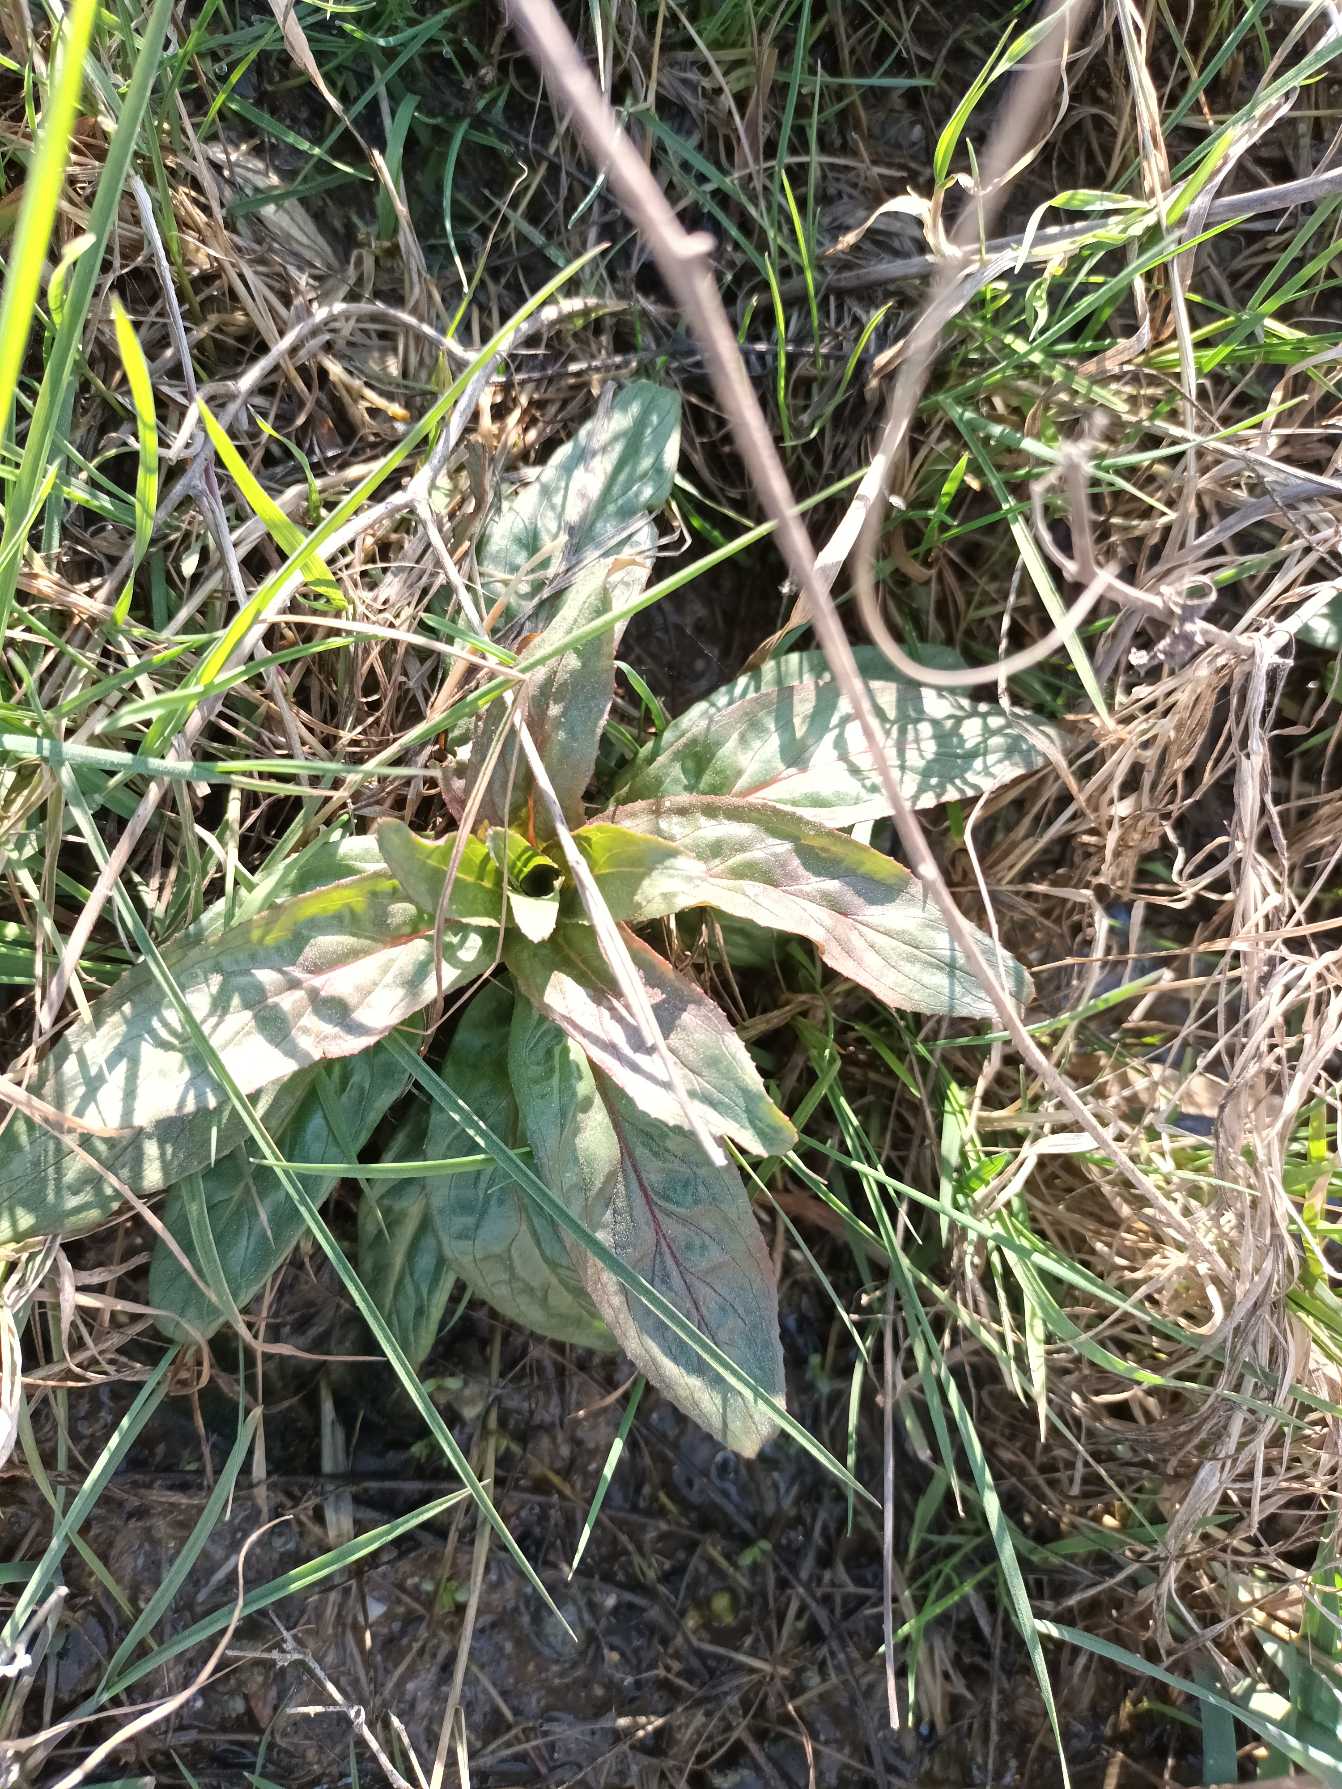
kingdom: Plantae
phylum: Tracheophyta
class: Magnoliopsida
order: Myrtales
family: Onagraceae
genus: Epilobium
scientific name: Epilobium hirsutum
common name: Lådden dueurt
